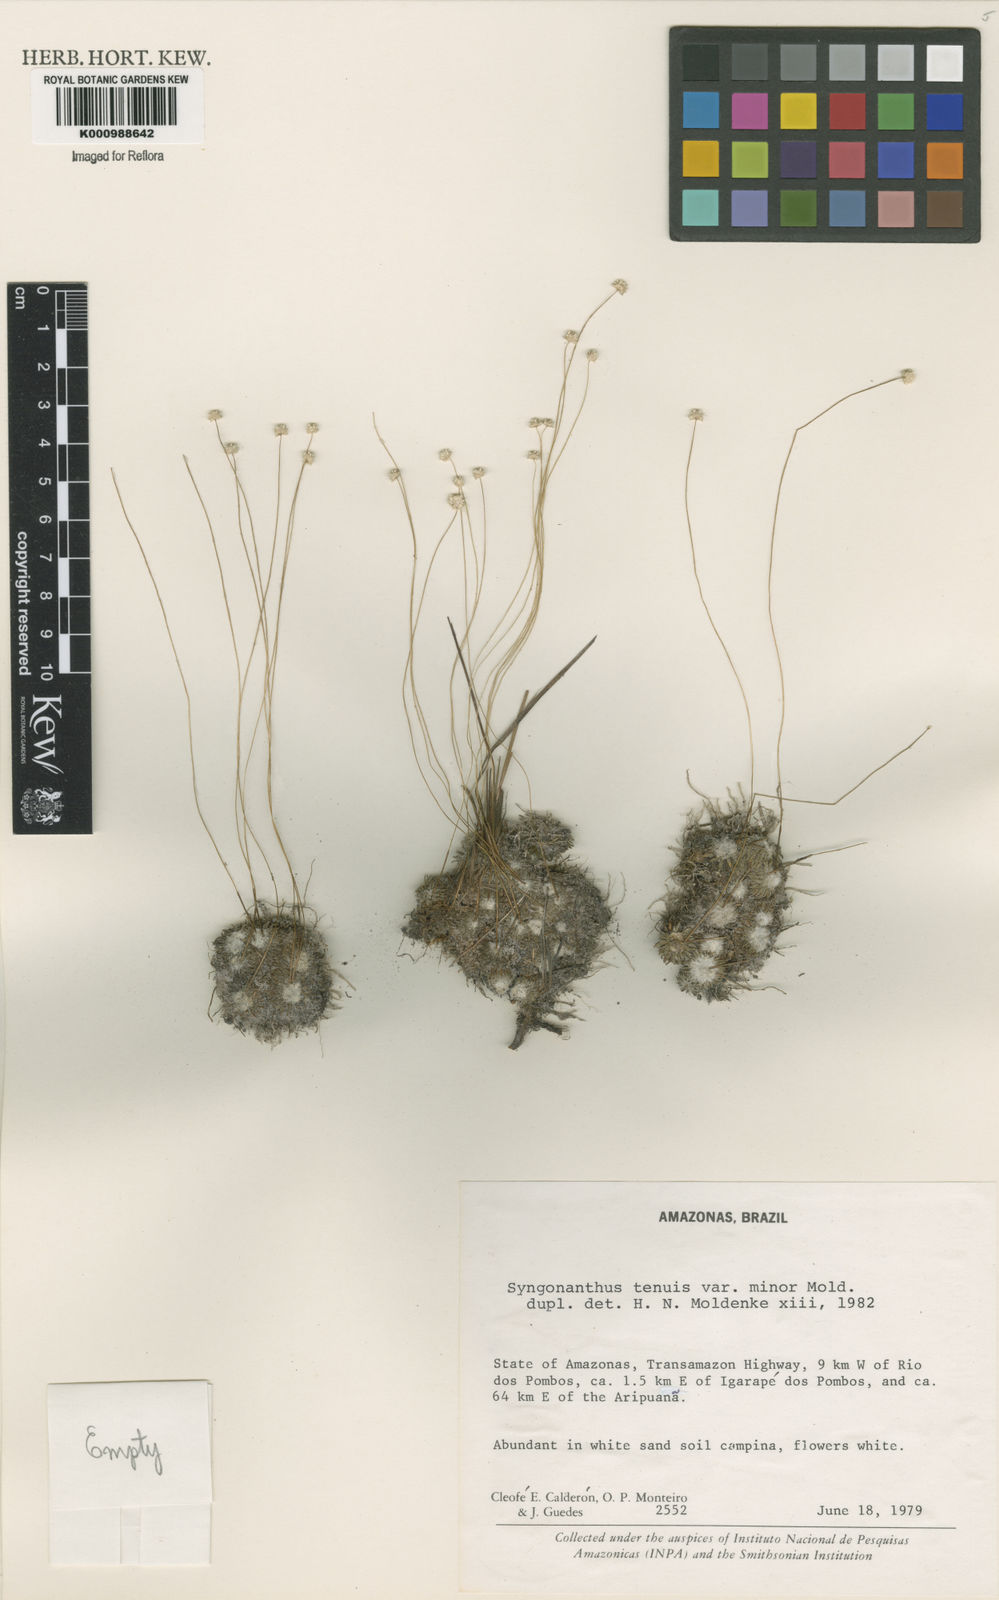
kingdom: Plantae
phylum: Tracheophyta
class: Liliopsida
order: Poales
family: Eriocaulaceae
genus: Syngonanthus
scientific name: Syngonanthus tenuis
